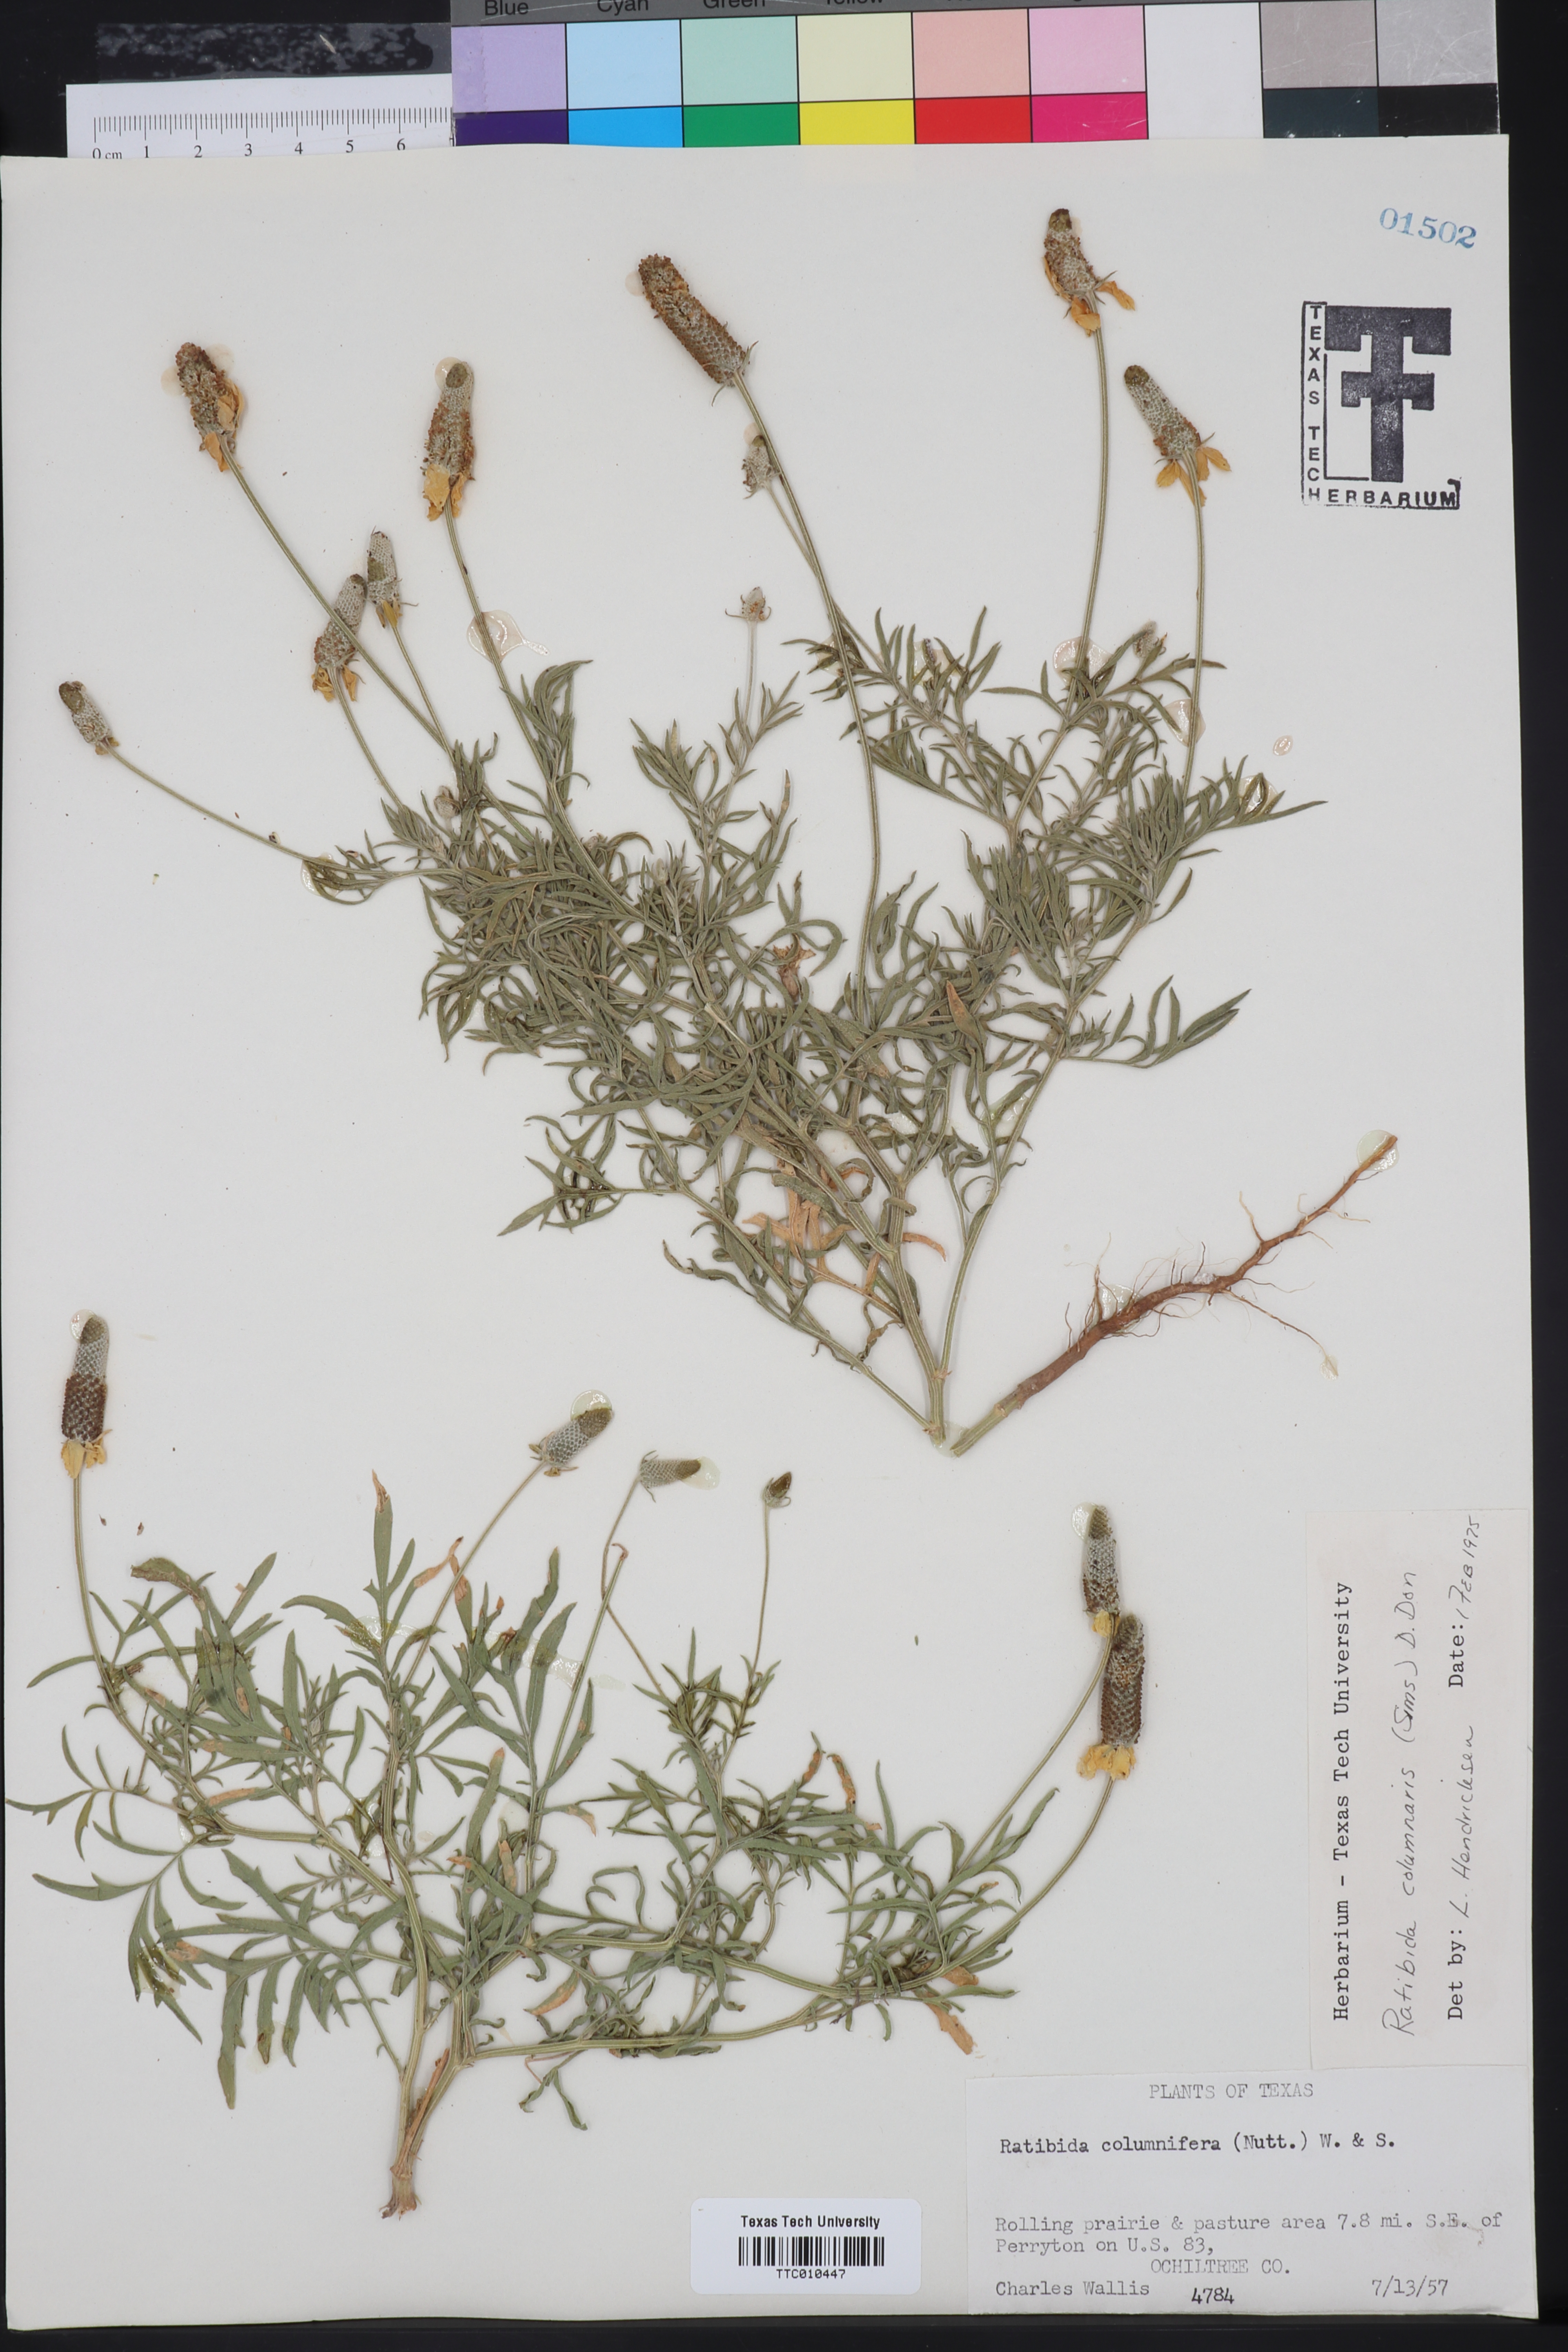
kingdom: Plantae
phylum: Tracheophyta
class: Magnoliopsida
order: Asterales
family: Asteraceae
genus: Ratibida
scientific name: Ratibida columnifera
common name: Prairie coneflower
